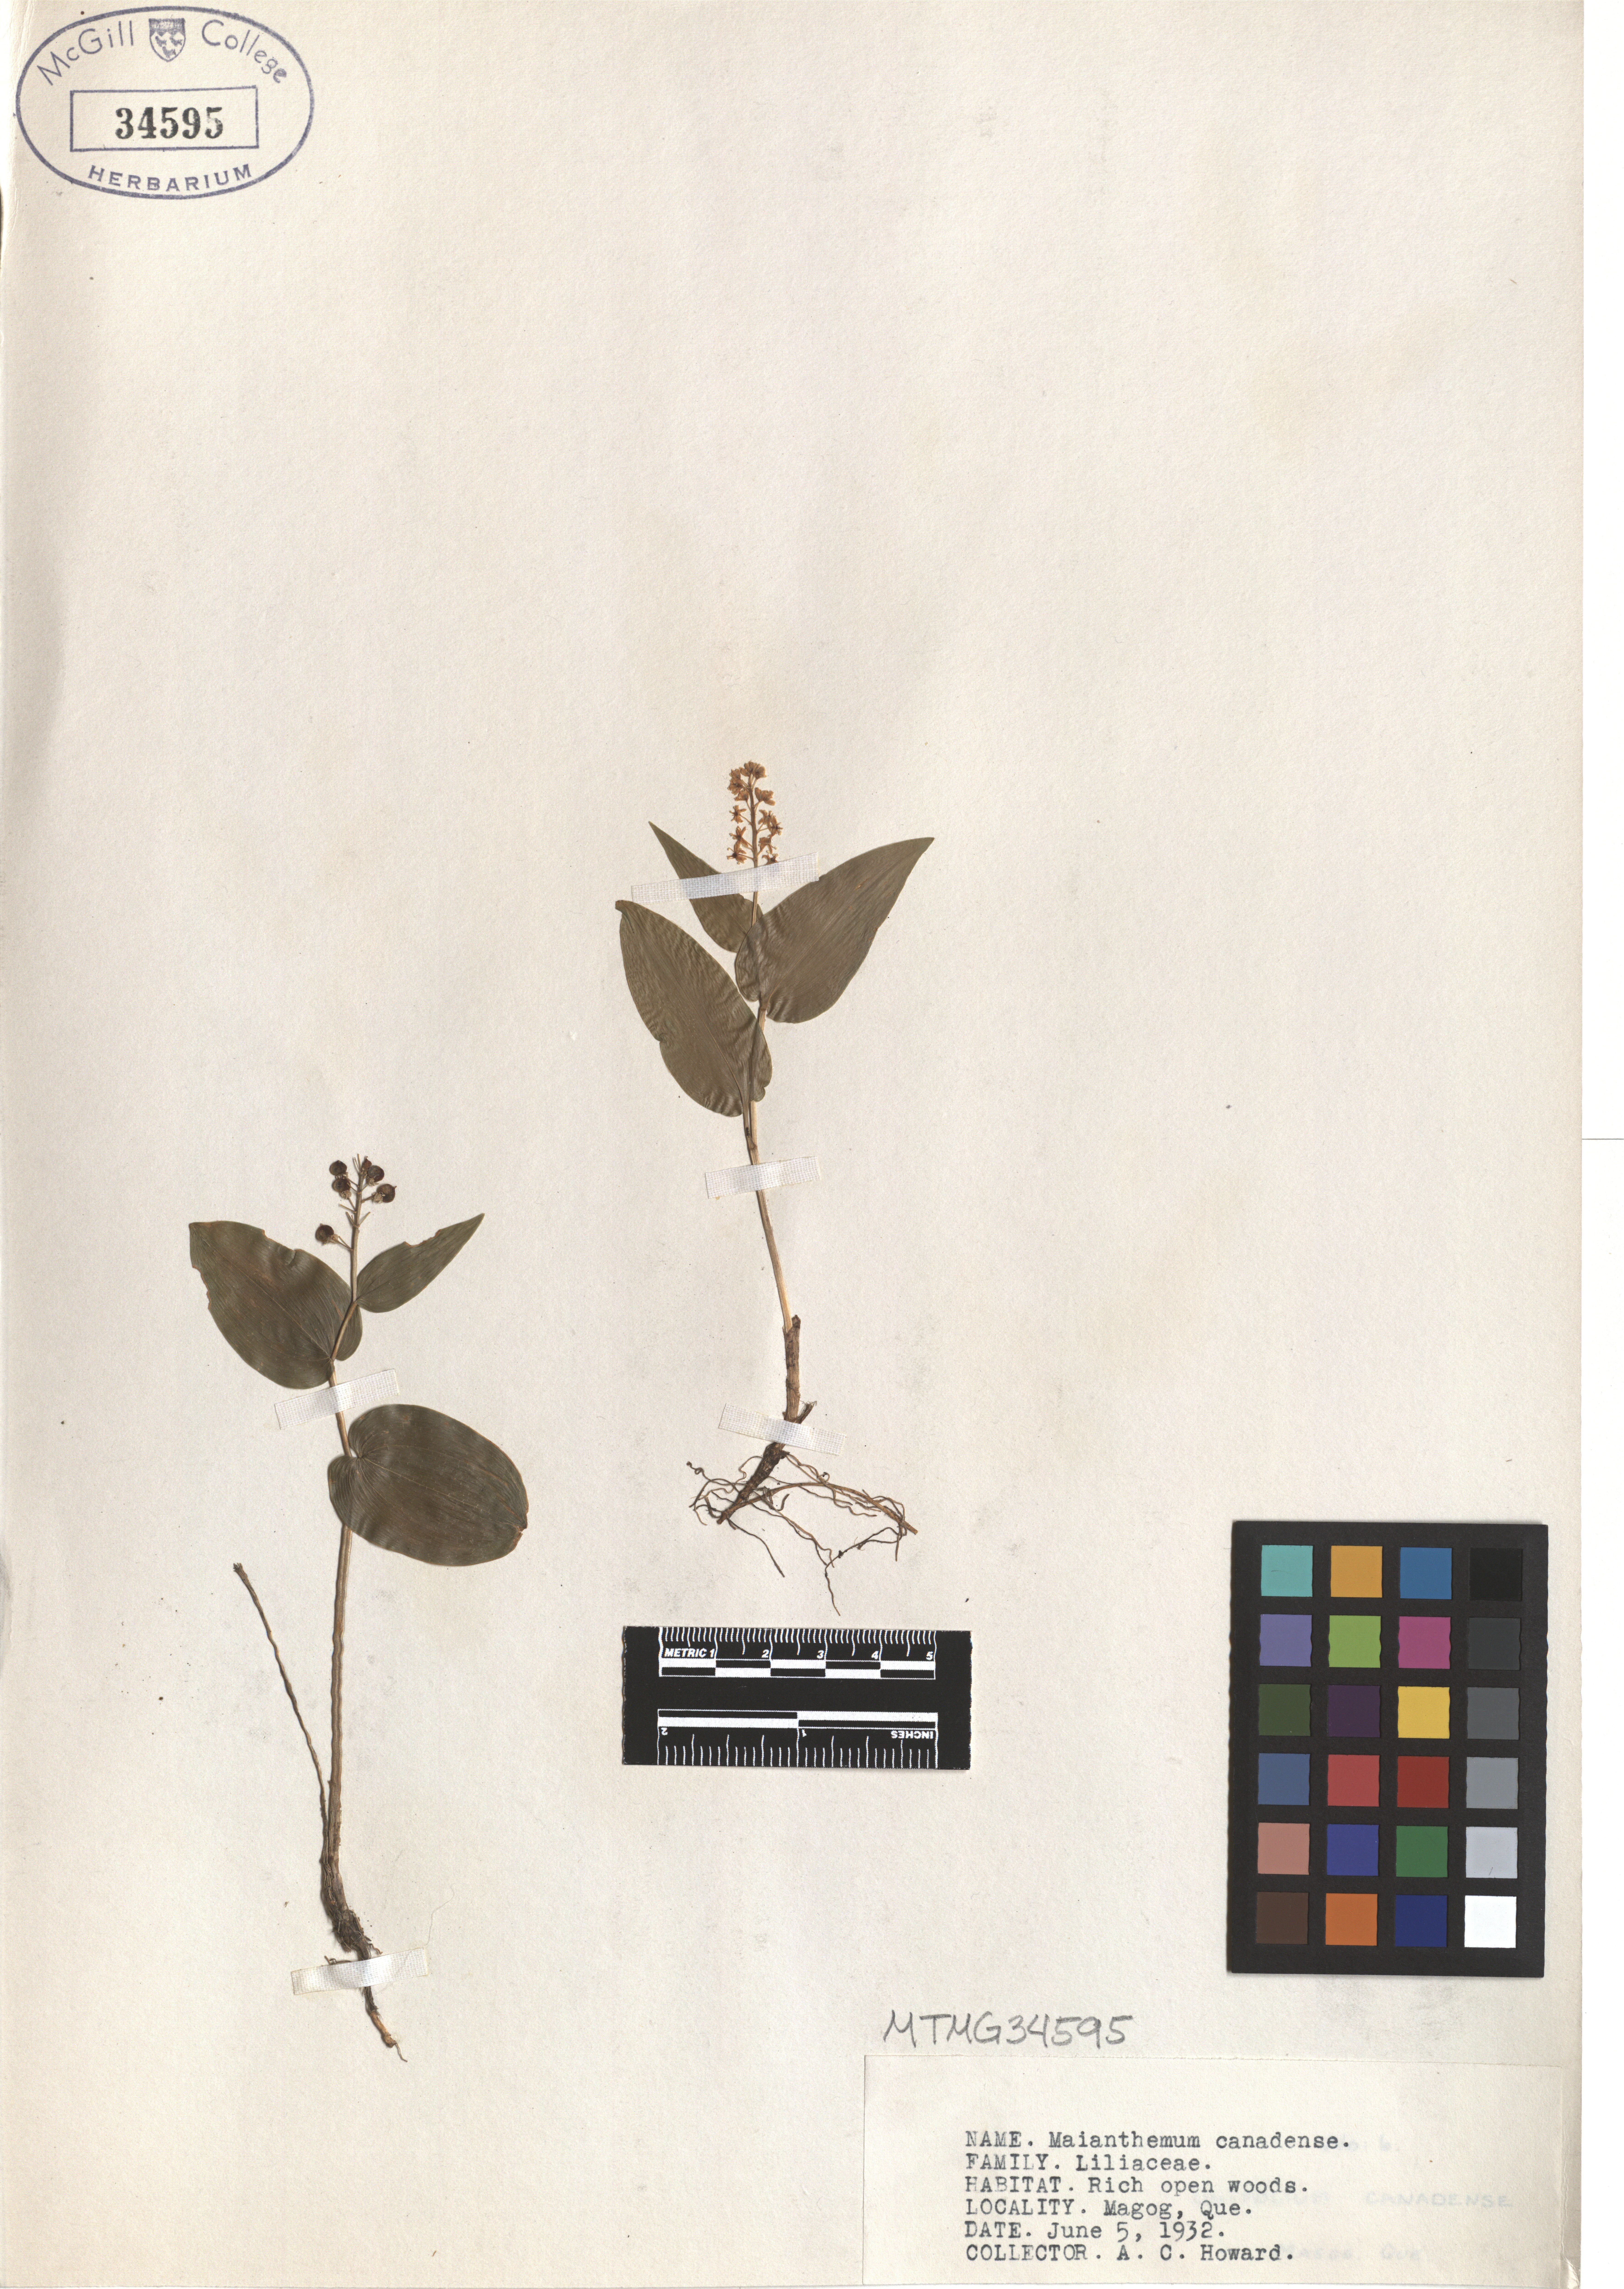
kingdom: Plantae
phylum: Tracheophyta
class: Liliopsida
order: Asparagales
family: Asparagaceae
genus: Maianthemum
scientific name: Maianthemum canadense
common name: False lily-of-the-valley
